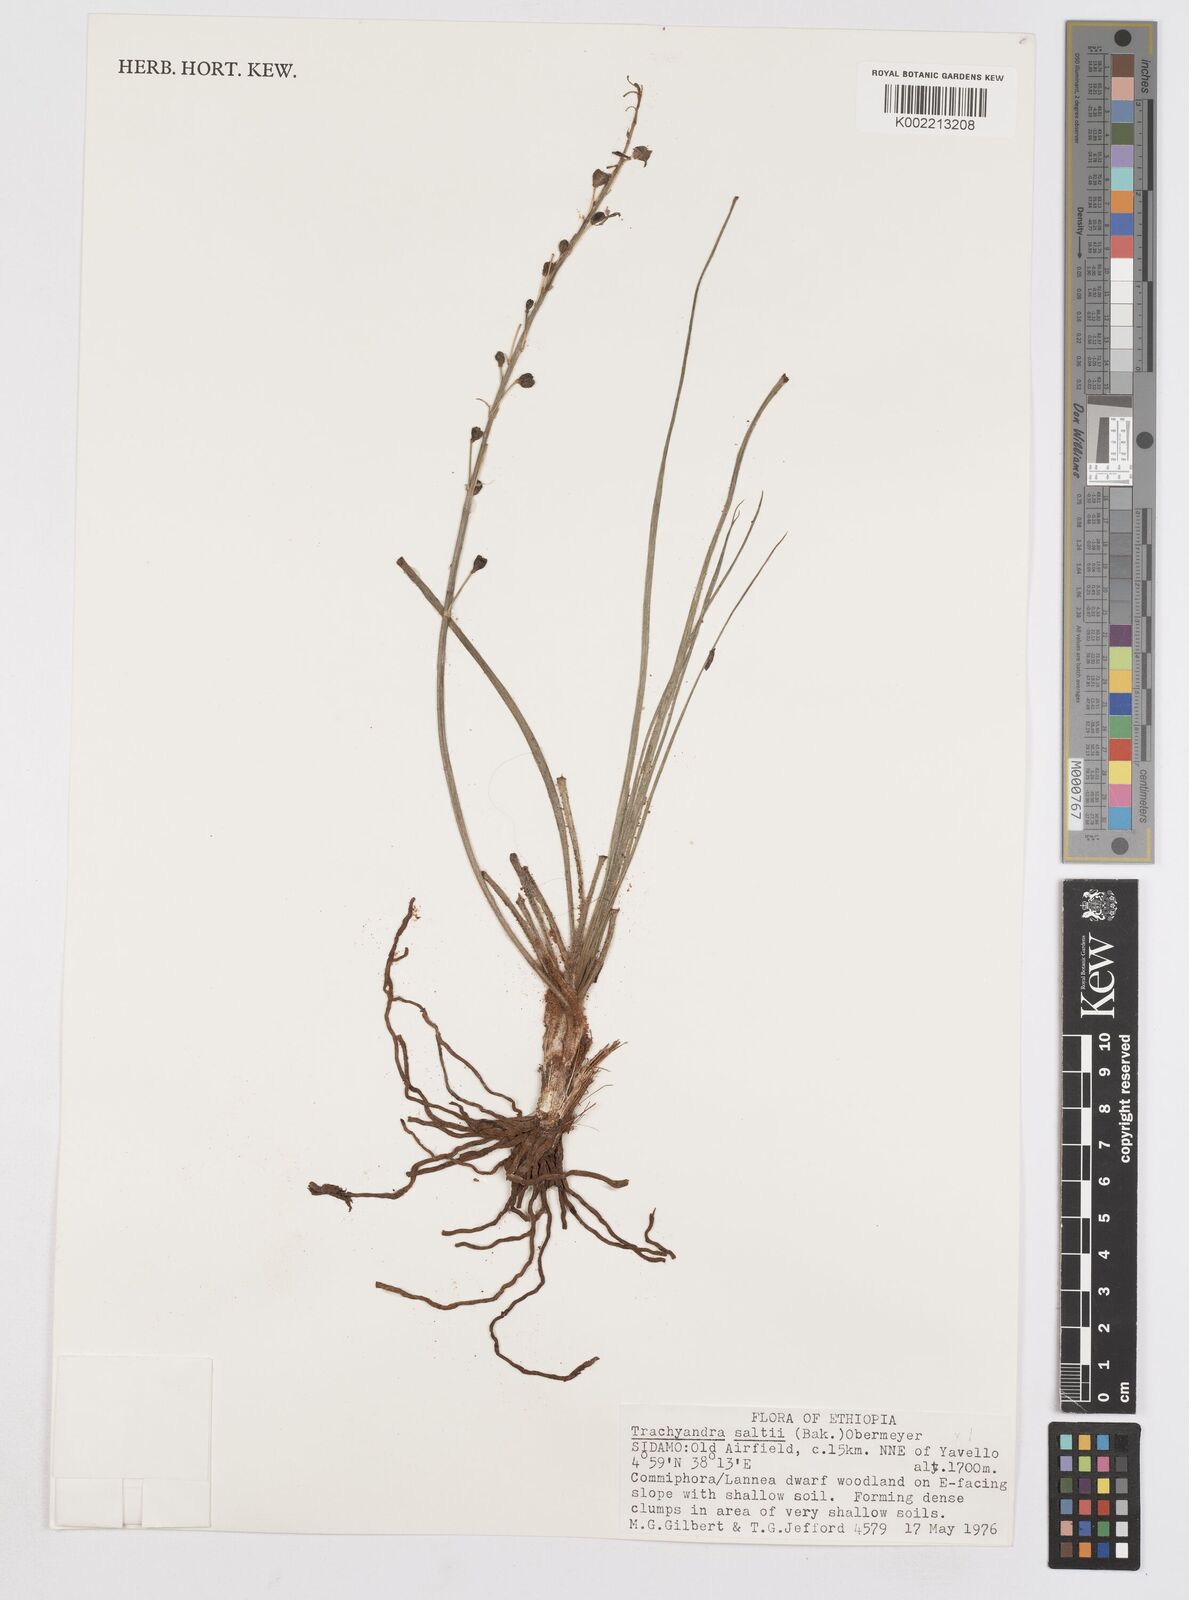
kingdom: Plantae
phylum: Tracheophyta
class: Liliopsida
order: Asparagales
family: Asphodelaceae
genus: Trachyandra
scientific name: Trachyandra saltii
